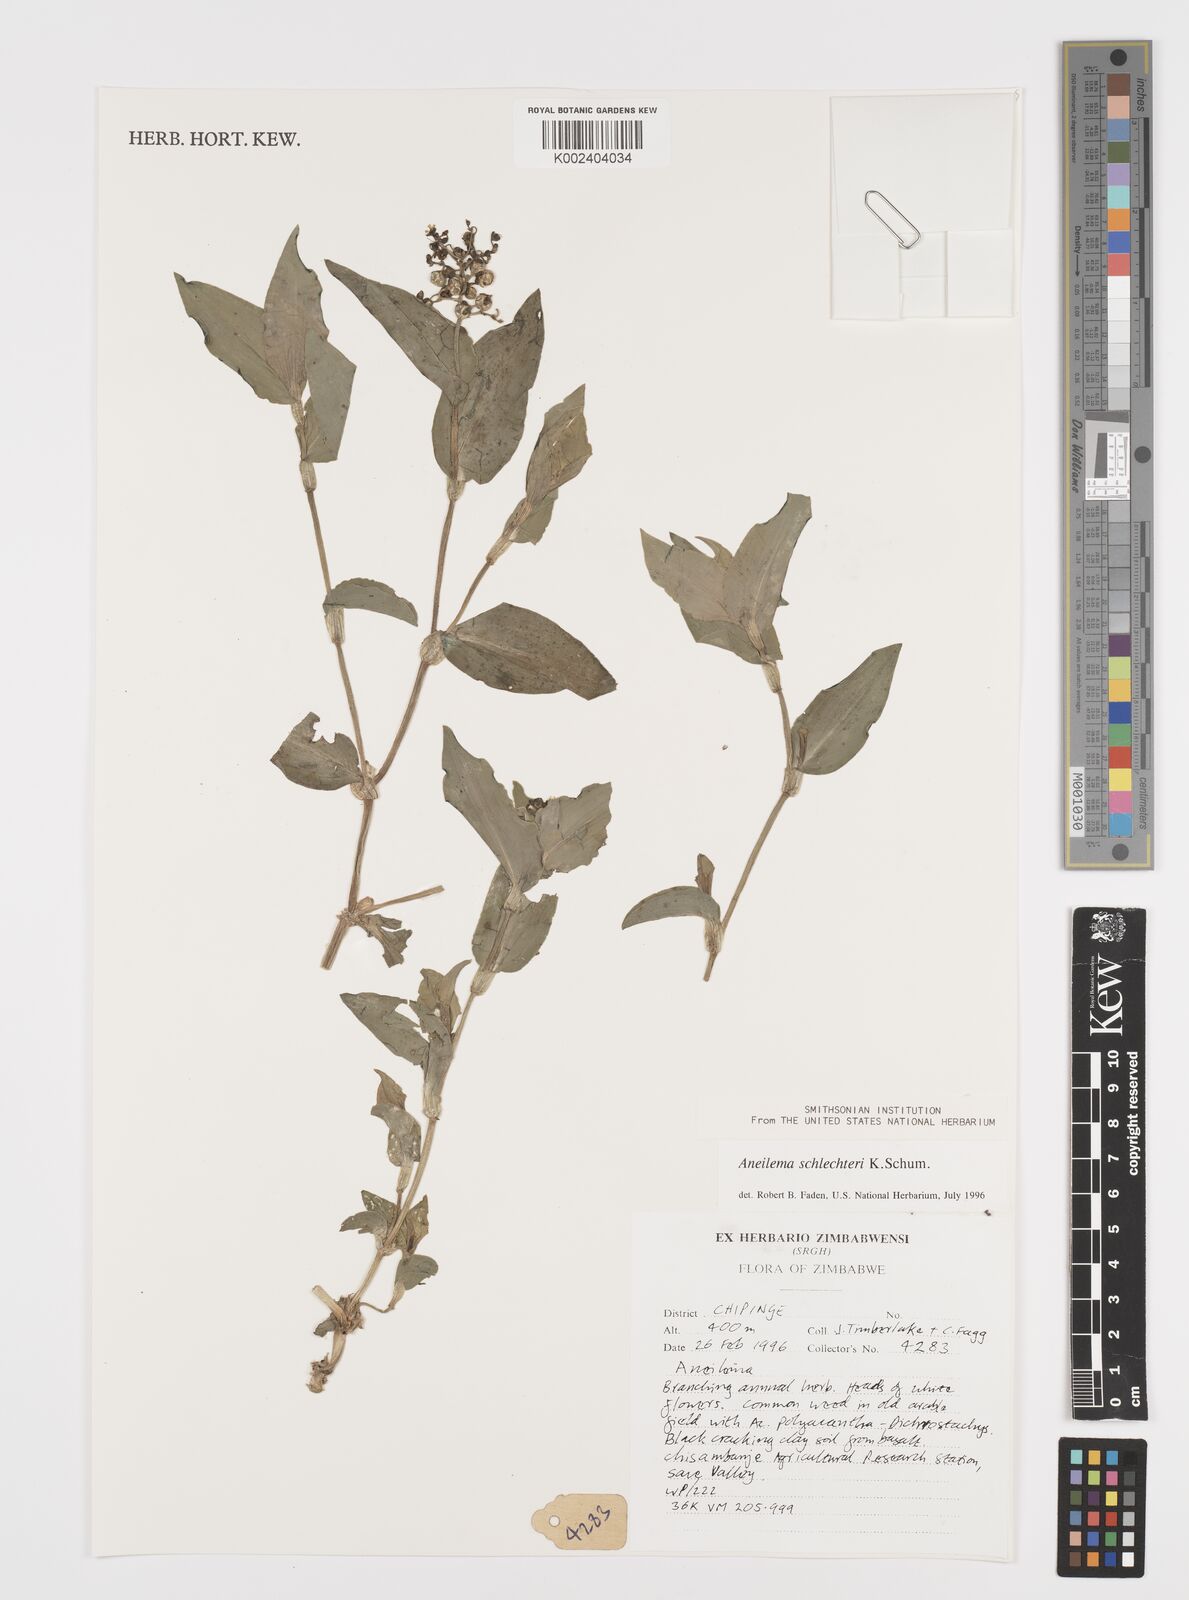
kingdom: Plantae
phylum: Tracheophyta
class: Liliopsida
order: Commelinales
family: Commelinaceae
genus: Aneilema
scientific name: Aneilema schlechteri
